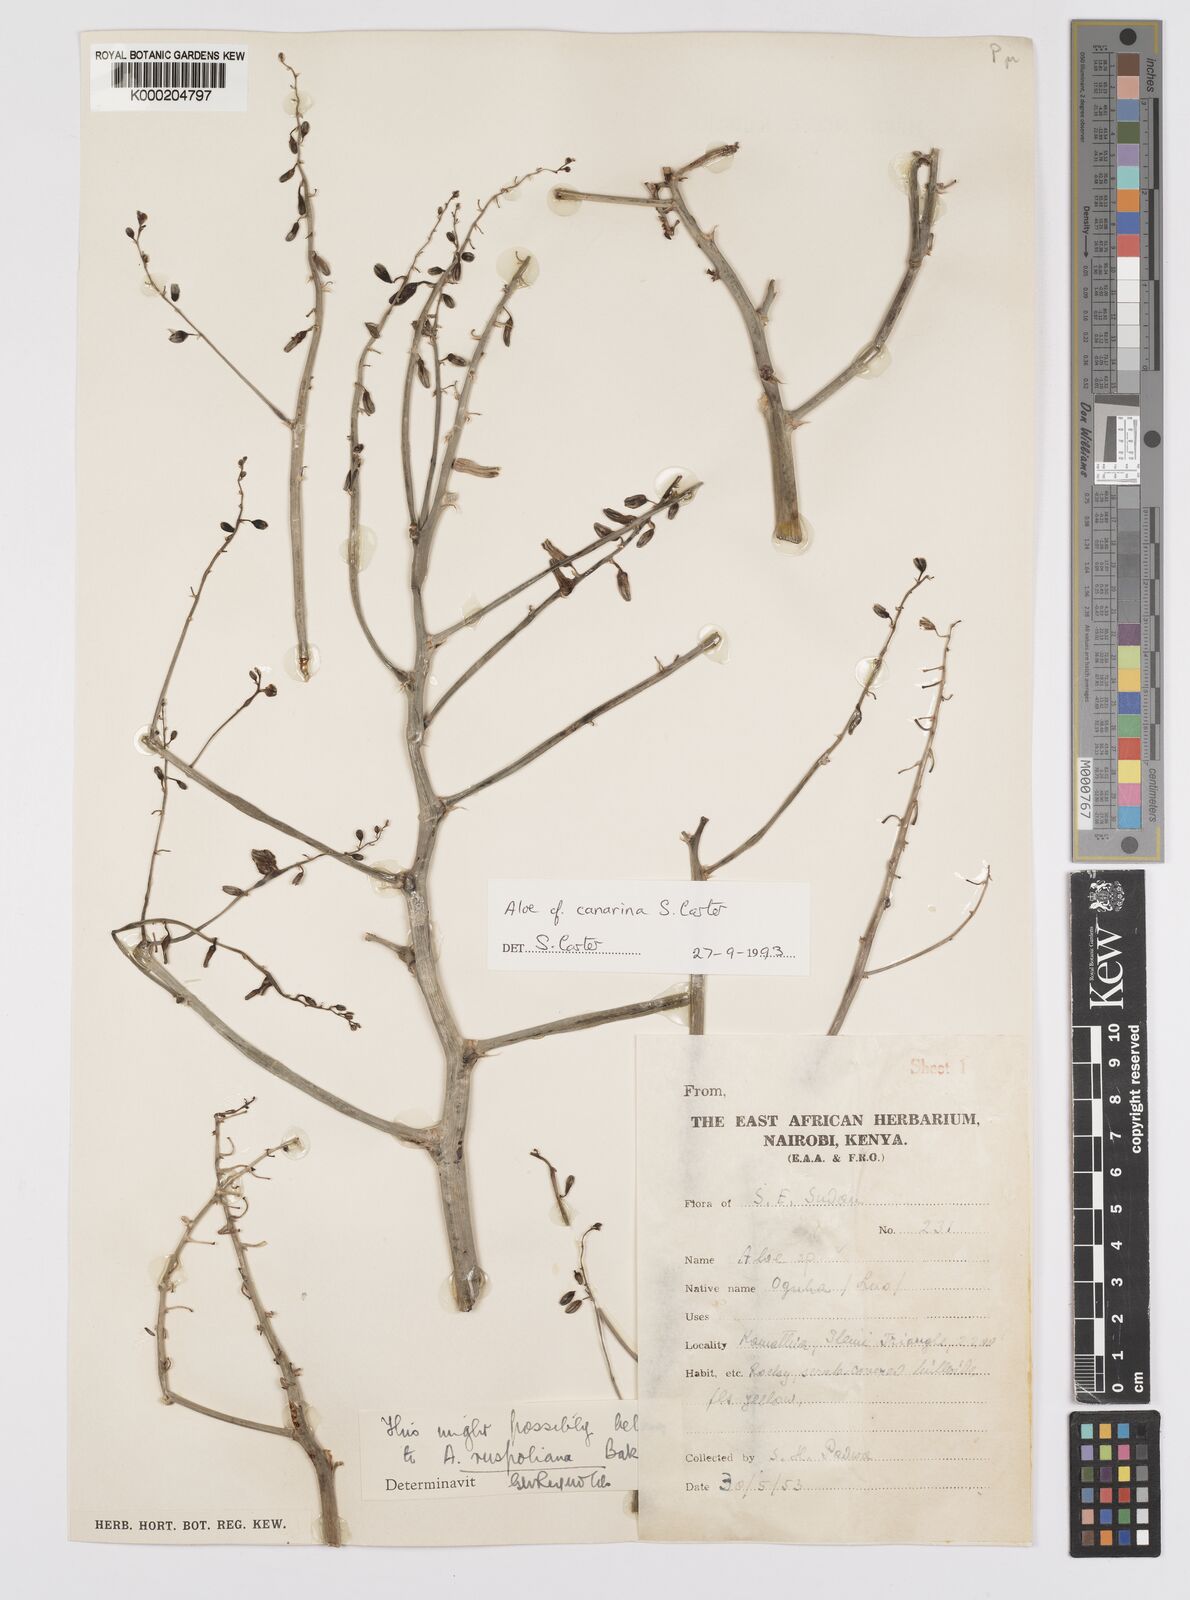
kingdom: Plantae
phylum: Tracheophyta
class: Liliopsida
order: Asparagales
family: Asphodelaceae
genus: Aloe
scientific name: Aloe canarina
